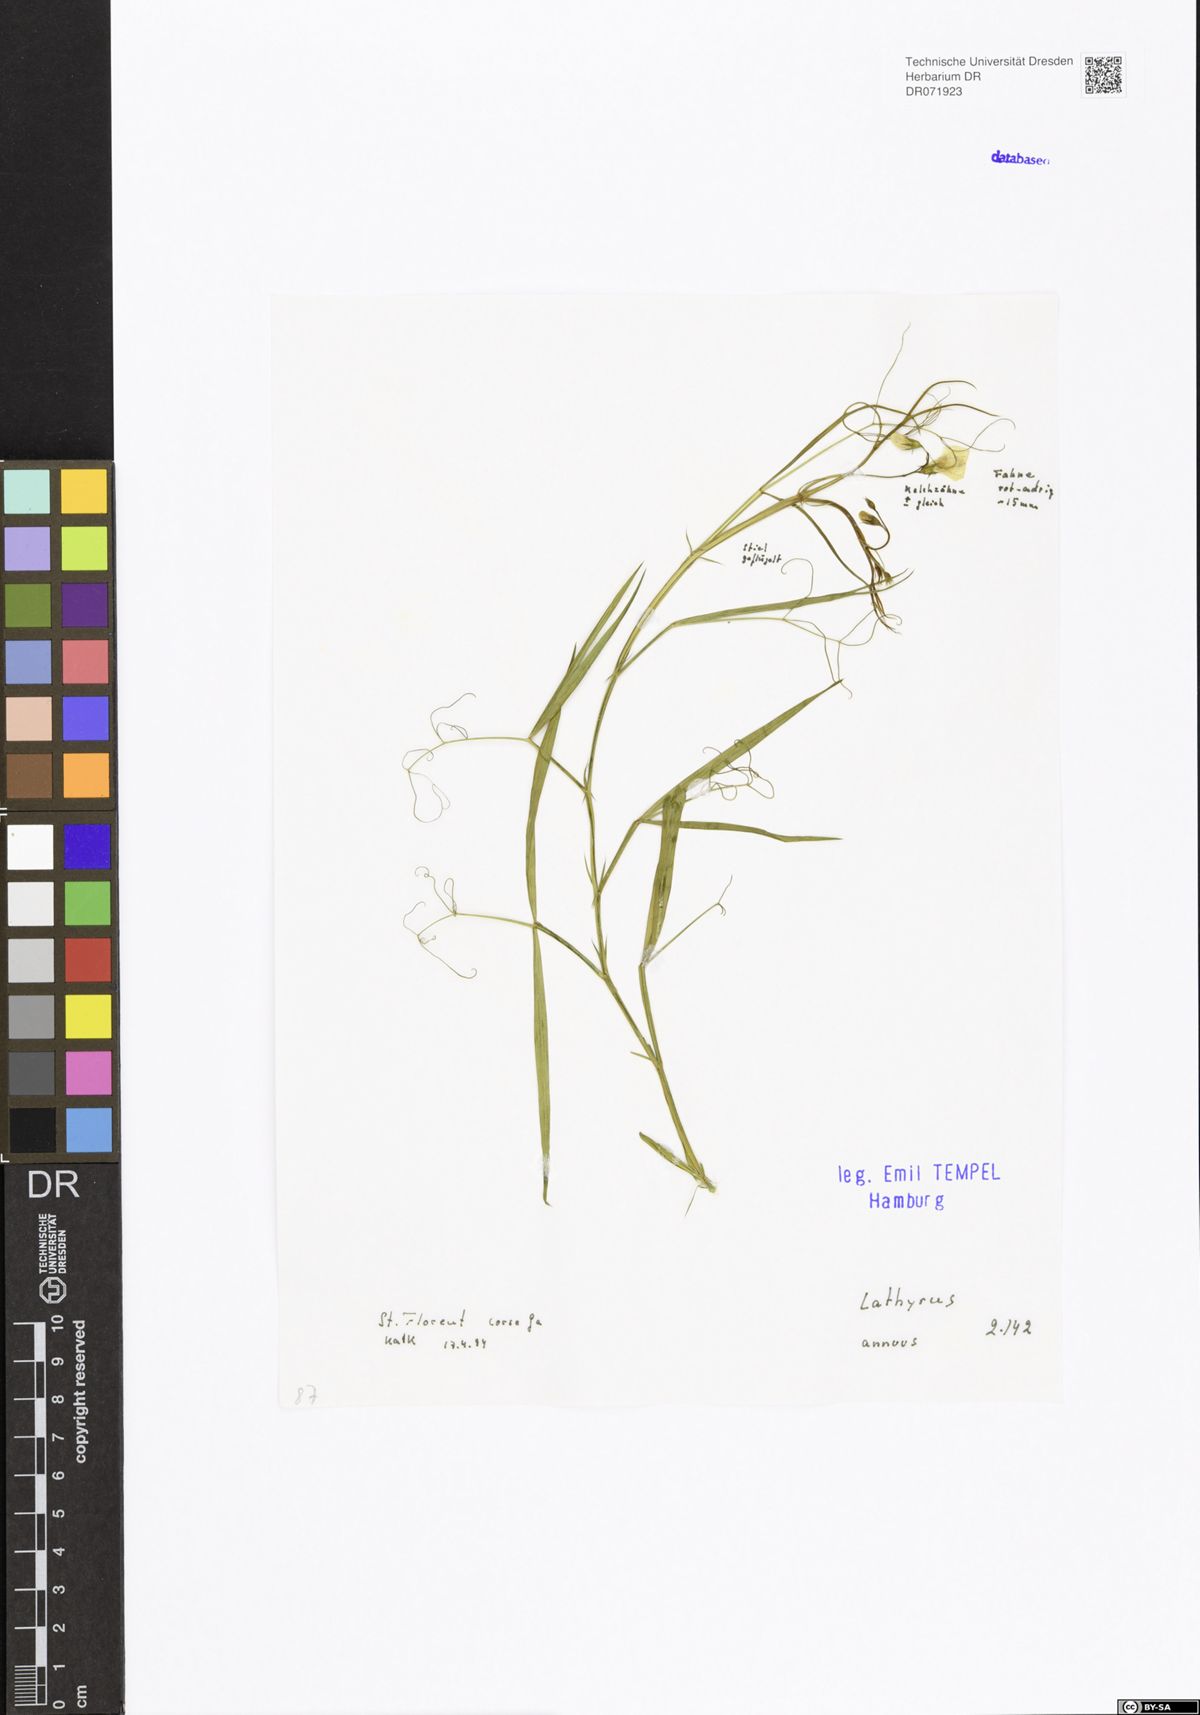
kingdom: Plantae
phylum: Tracheophyta
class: Magnoliopsida
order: Fabales
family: Fabaceae
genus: Lathyrus
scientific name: Lathyrus annuus
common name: Fodder pea
